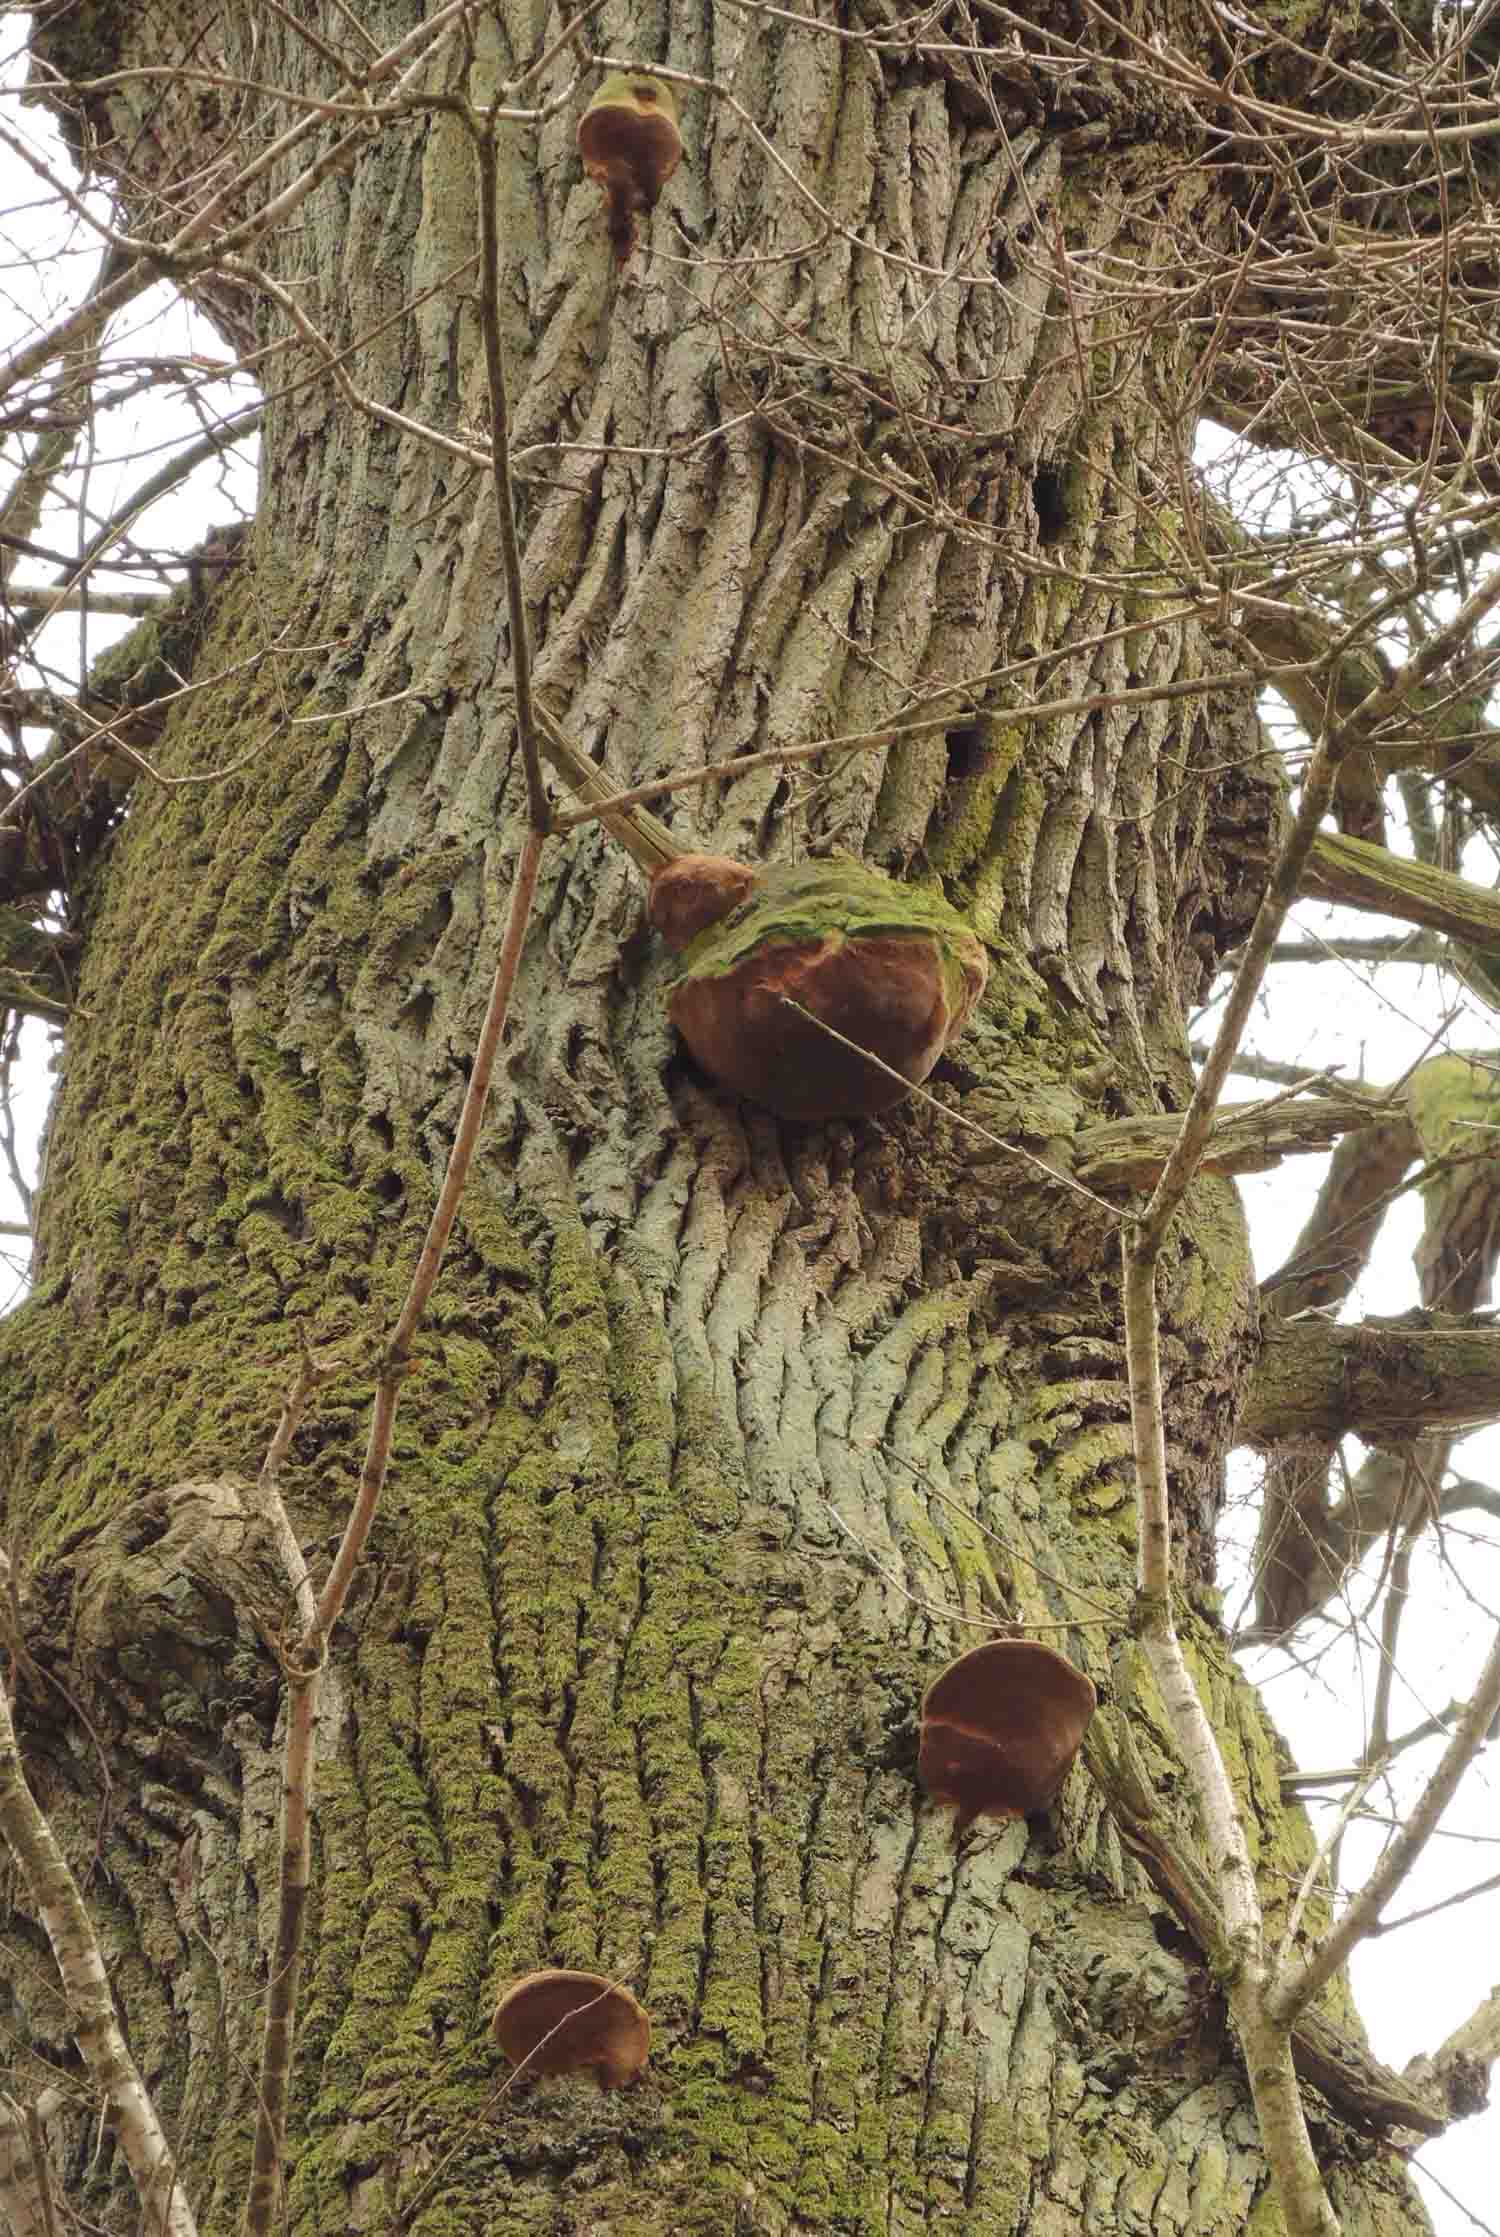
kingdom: Fungi
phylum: Basidiomycota
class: Agaricomycetes
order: Hymenochaetales
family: Hymenochaetaceae
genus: Fomitiporia
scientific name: Fomitiporia robusta
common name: ege-ildporesvamp
